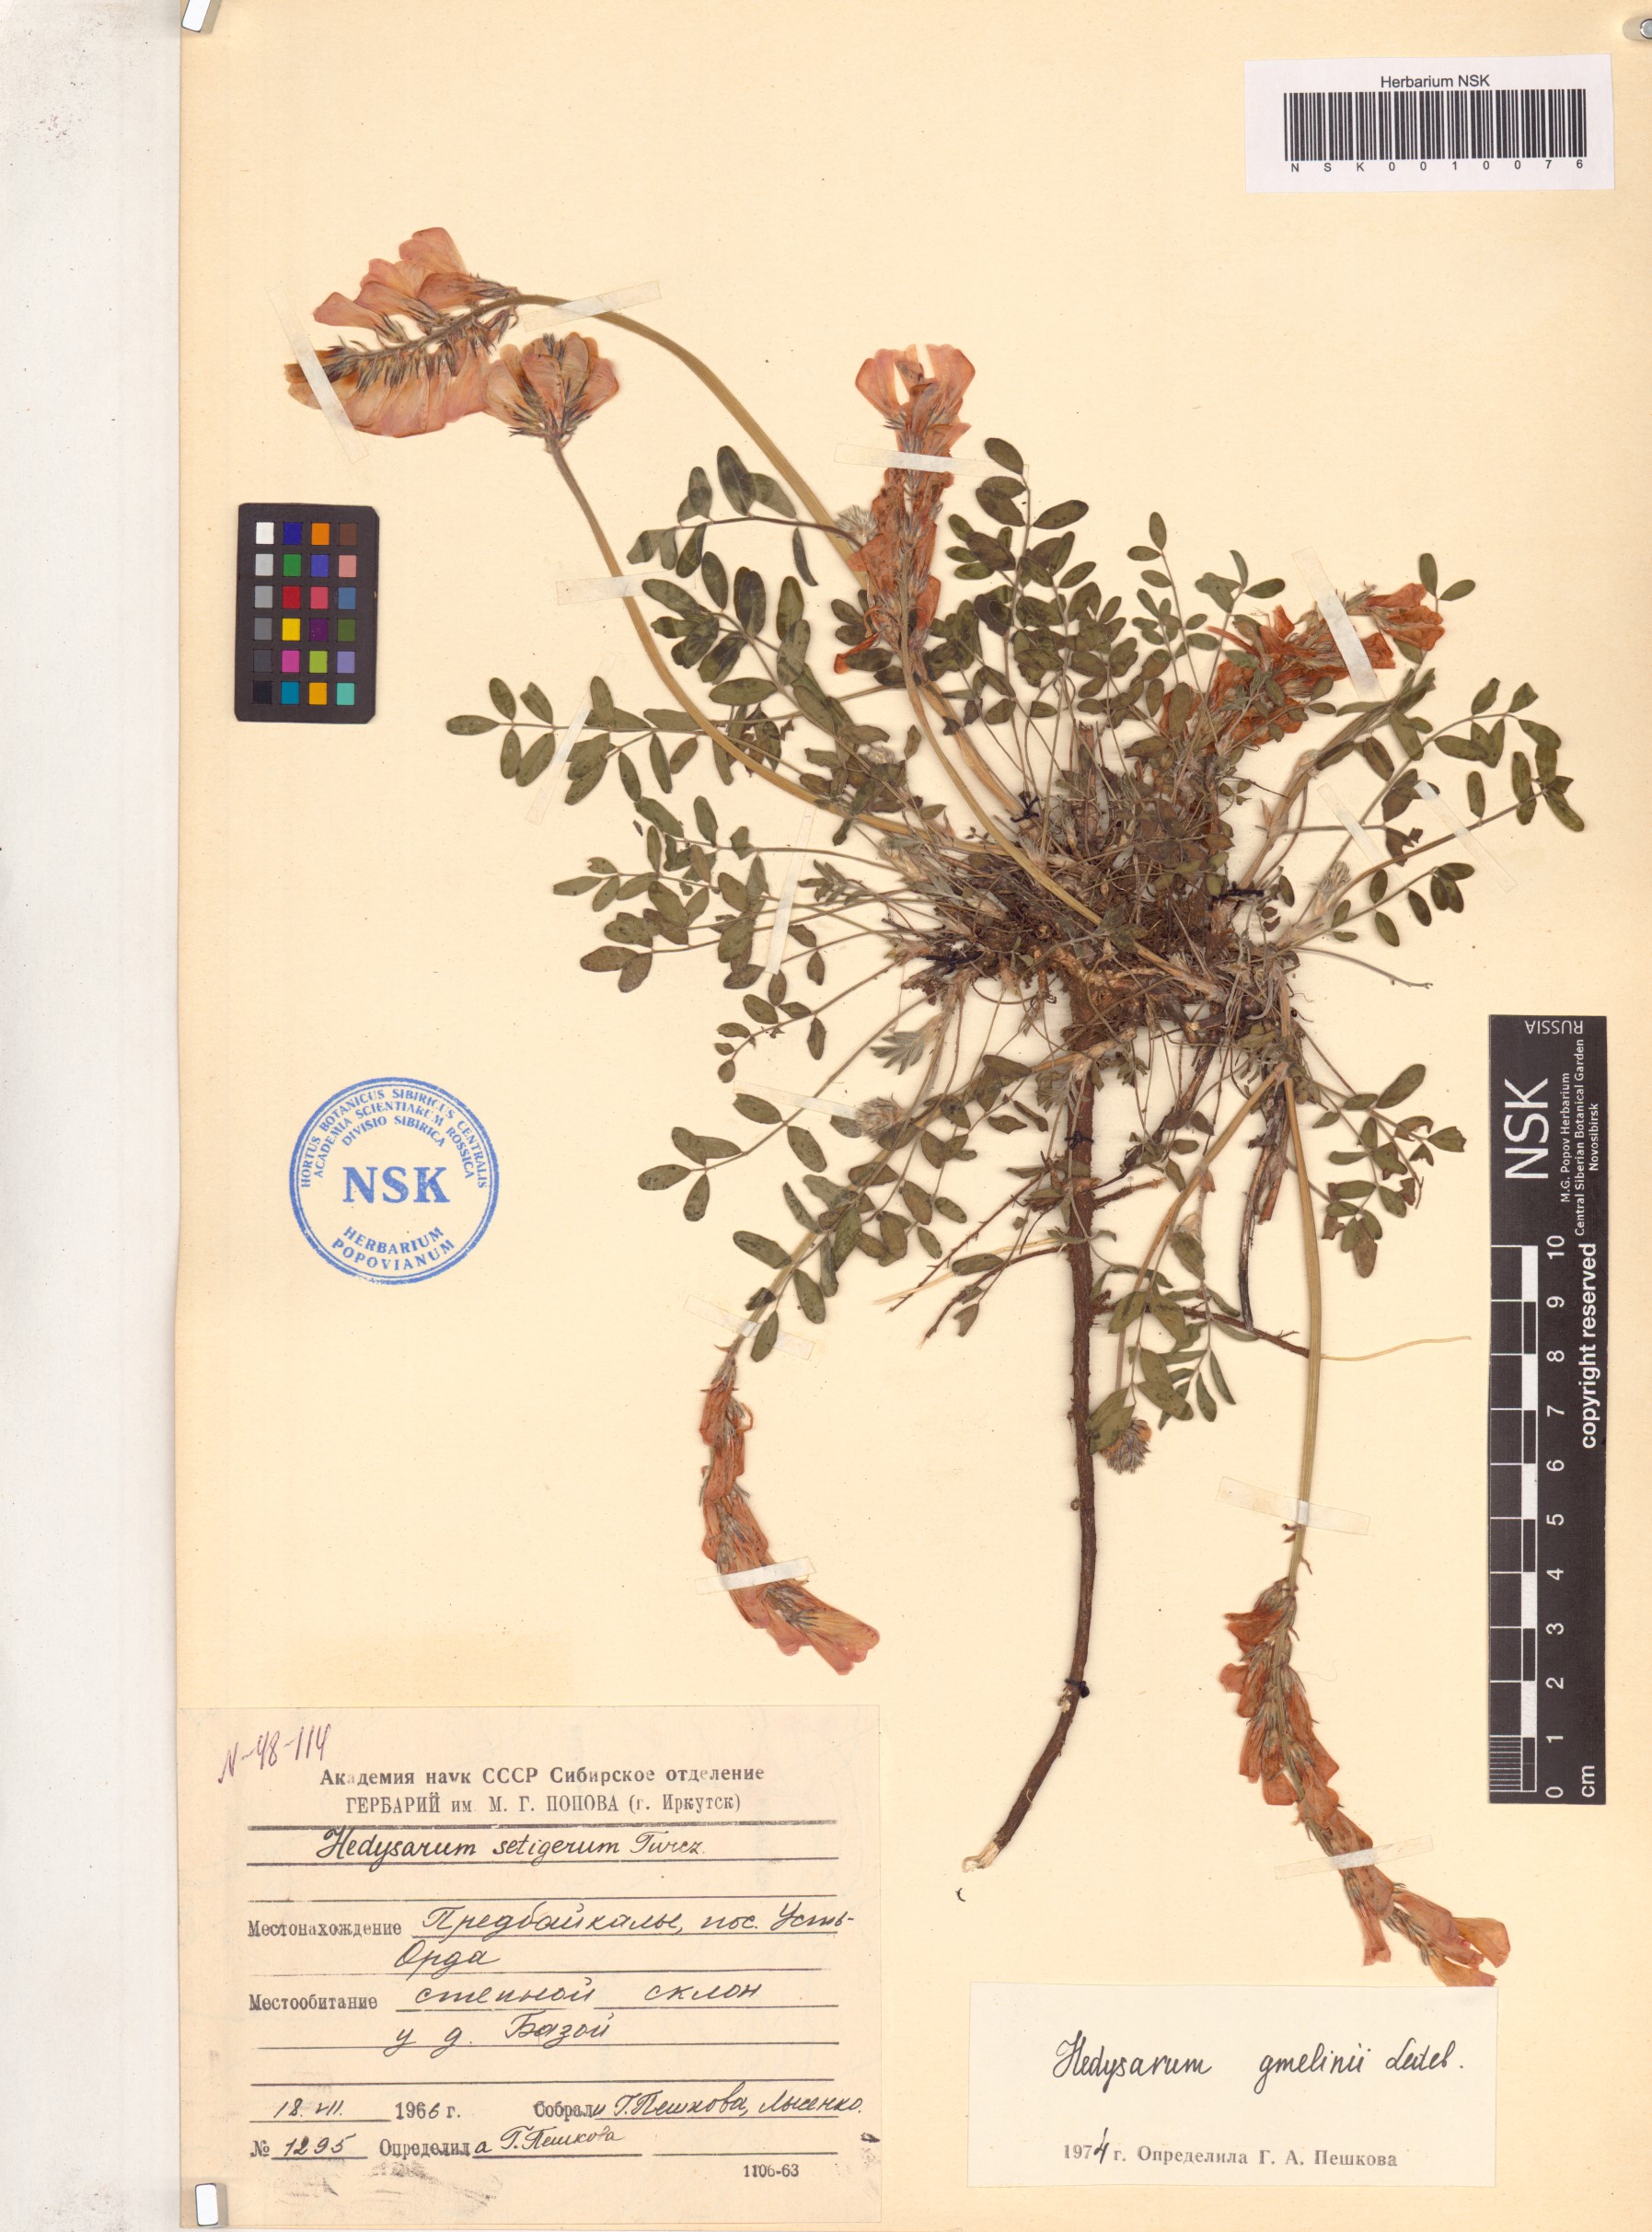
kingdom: Plantae
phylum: Tracheophyta
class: Magnoliopsida
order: Fabales
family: Fabaceae
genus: Hedysarum
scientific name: Hedysarum gmelinii
